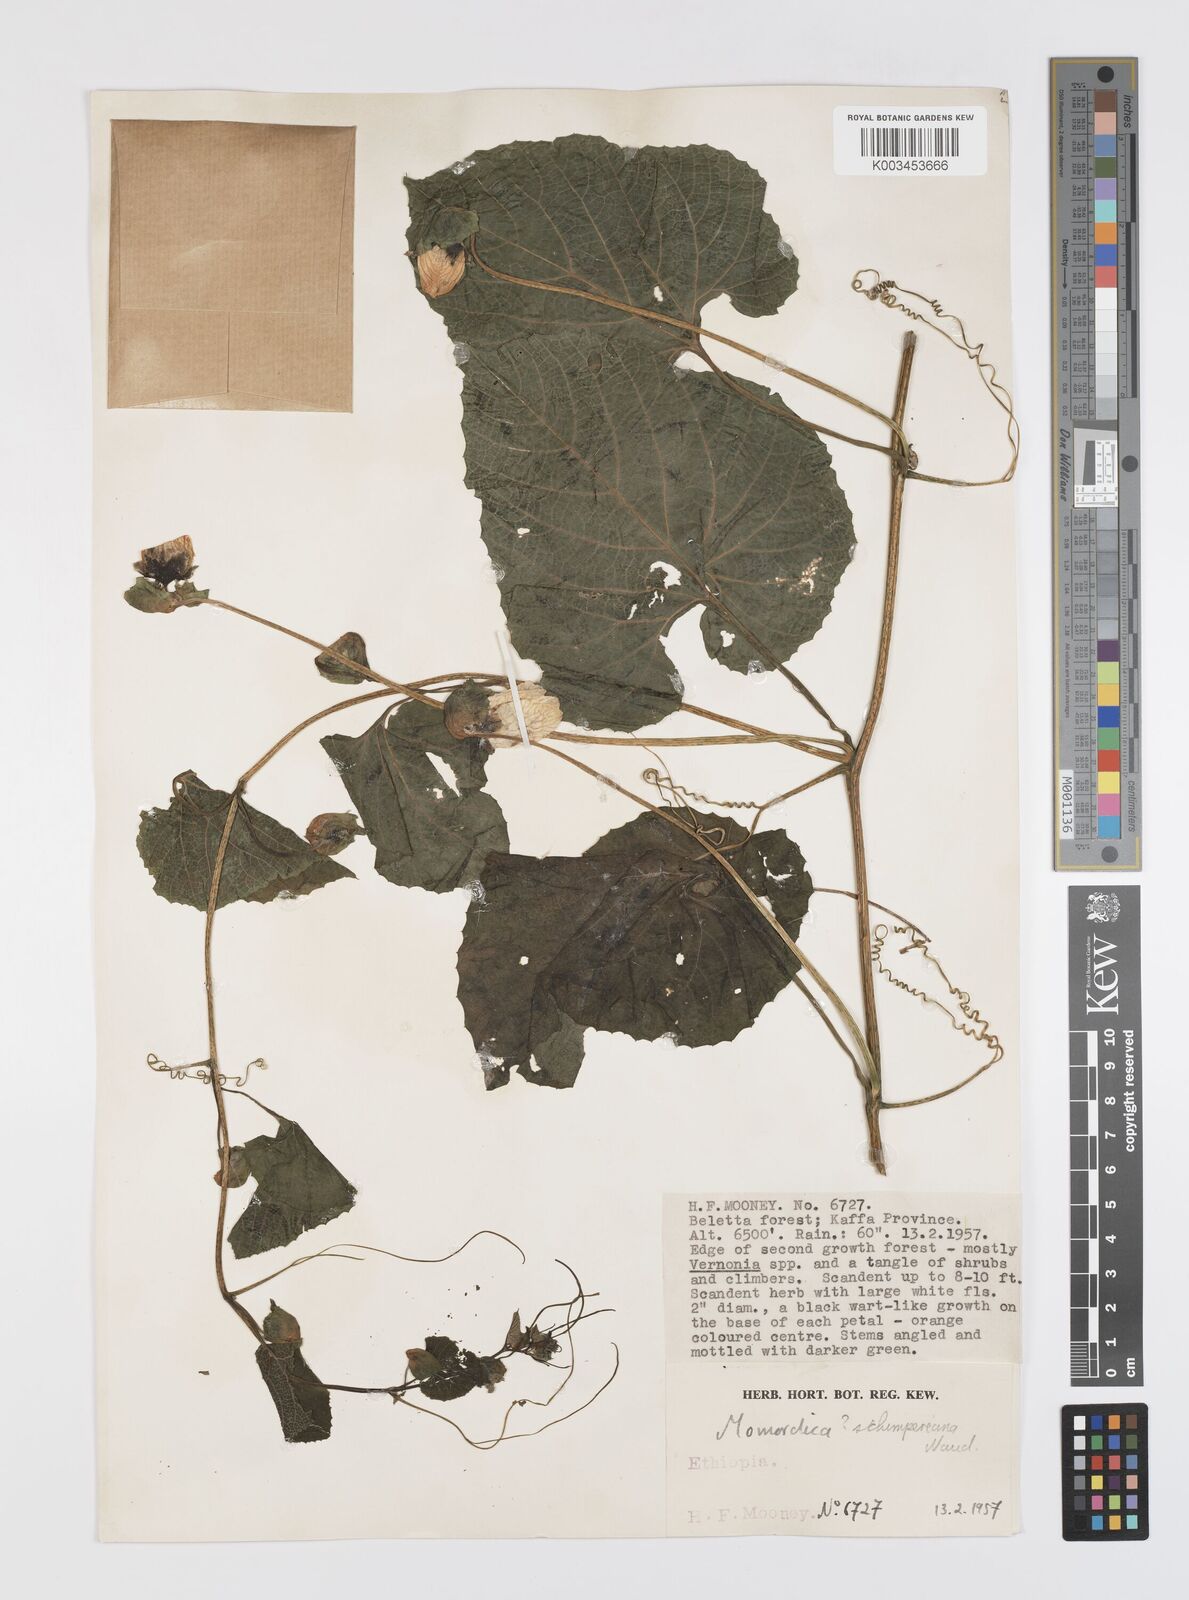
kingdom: Plantae
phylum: Tracheophyta
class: Magnoliopsida
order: Cucurbitales
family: Cucurbitaceae
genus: Momordica
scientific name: Momordica foetida
